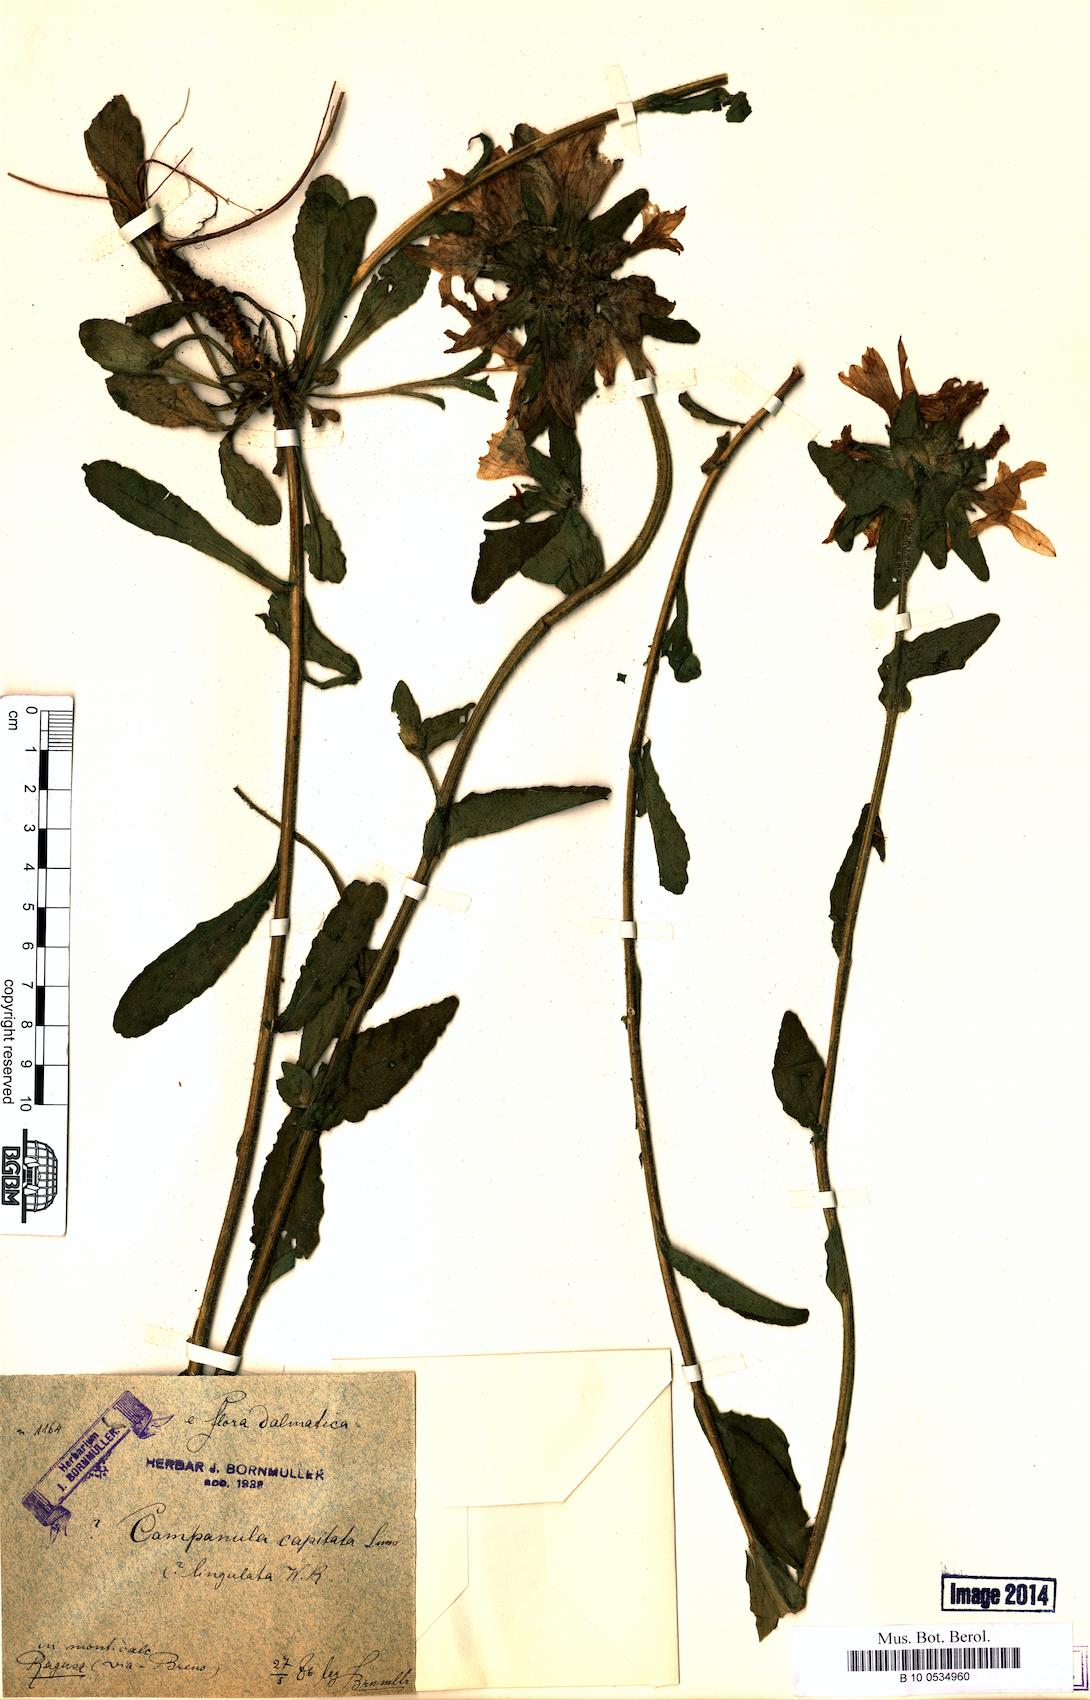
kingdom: Plantae
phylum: Tracheophyta
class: Magnoliopsida
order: Asterales
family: Campanulaceae
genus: Campanula
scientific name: Campanula lingulata
